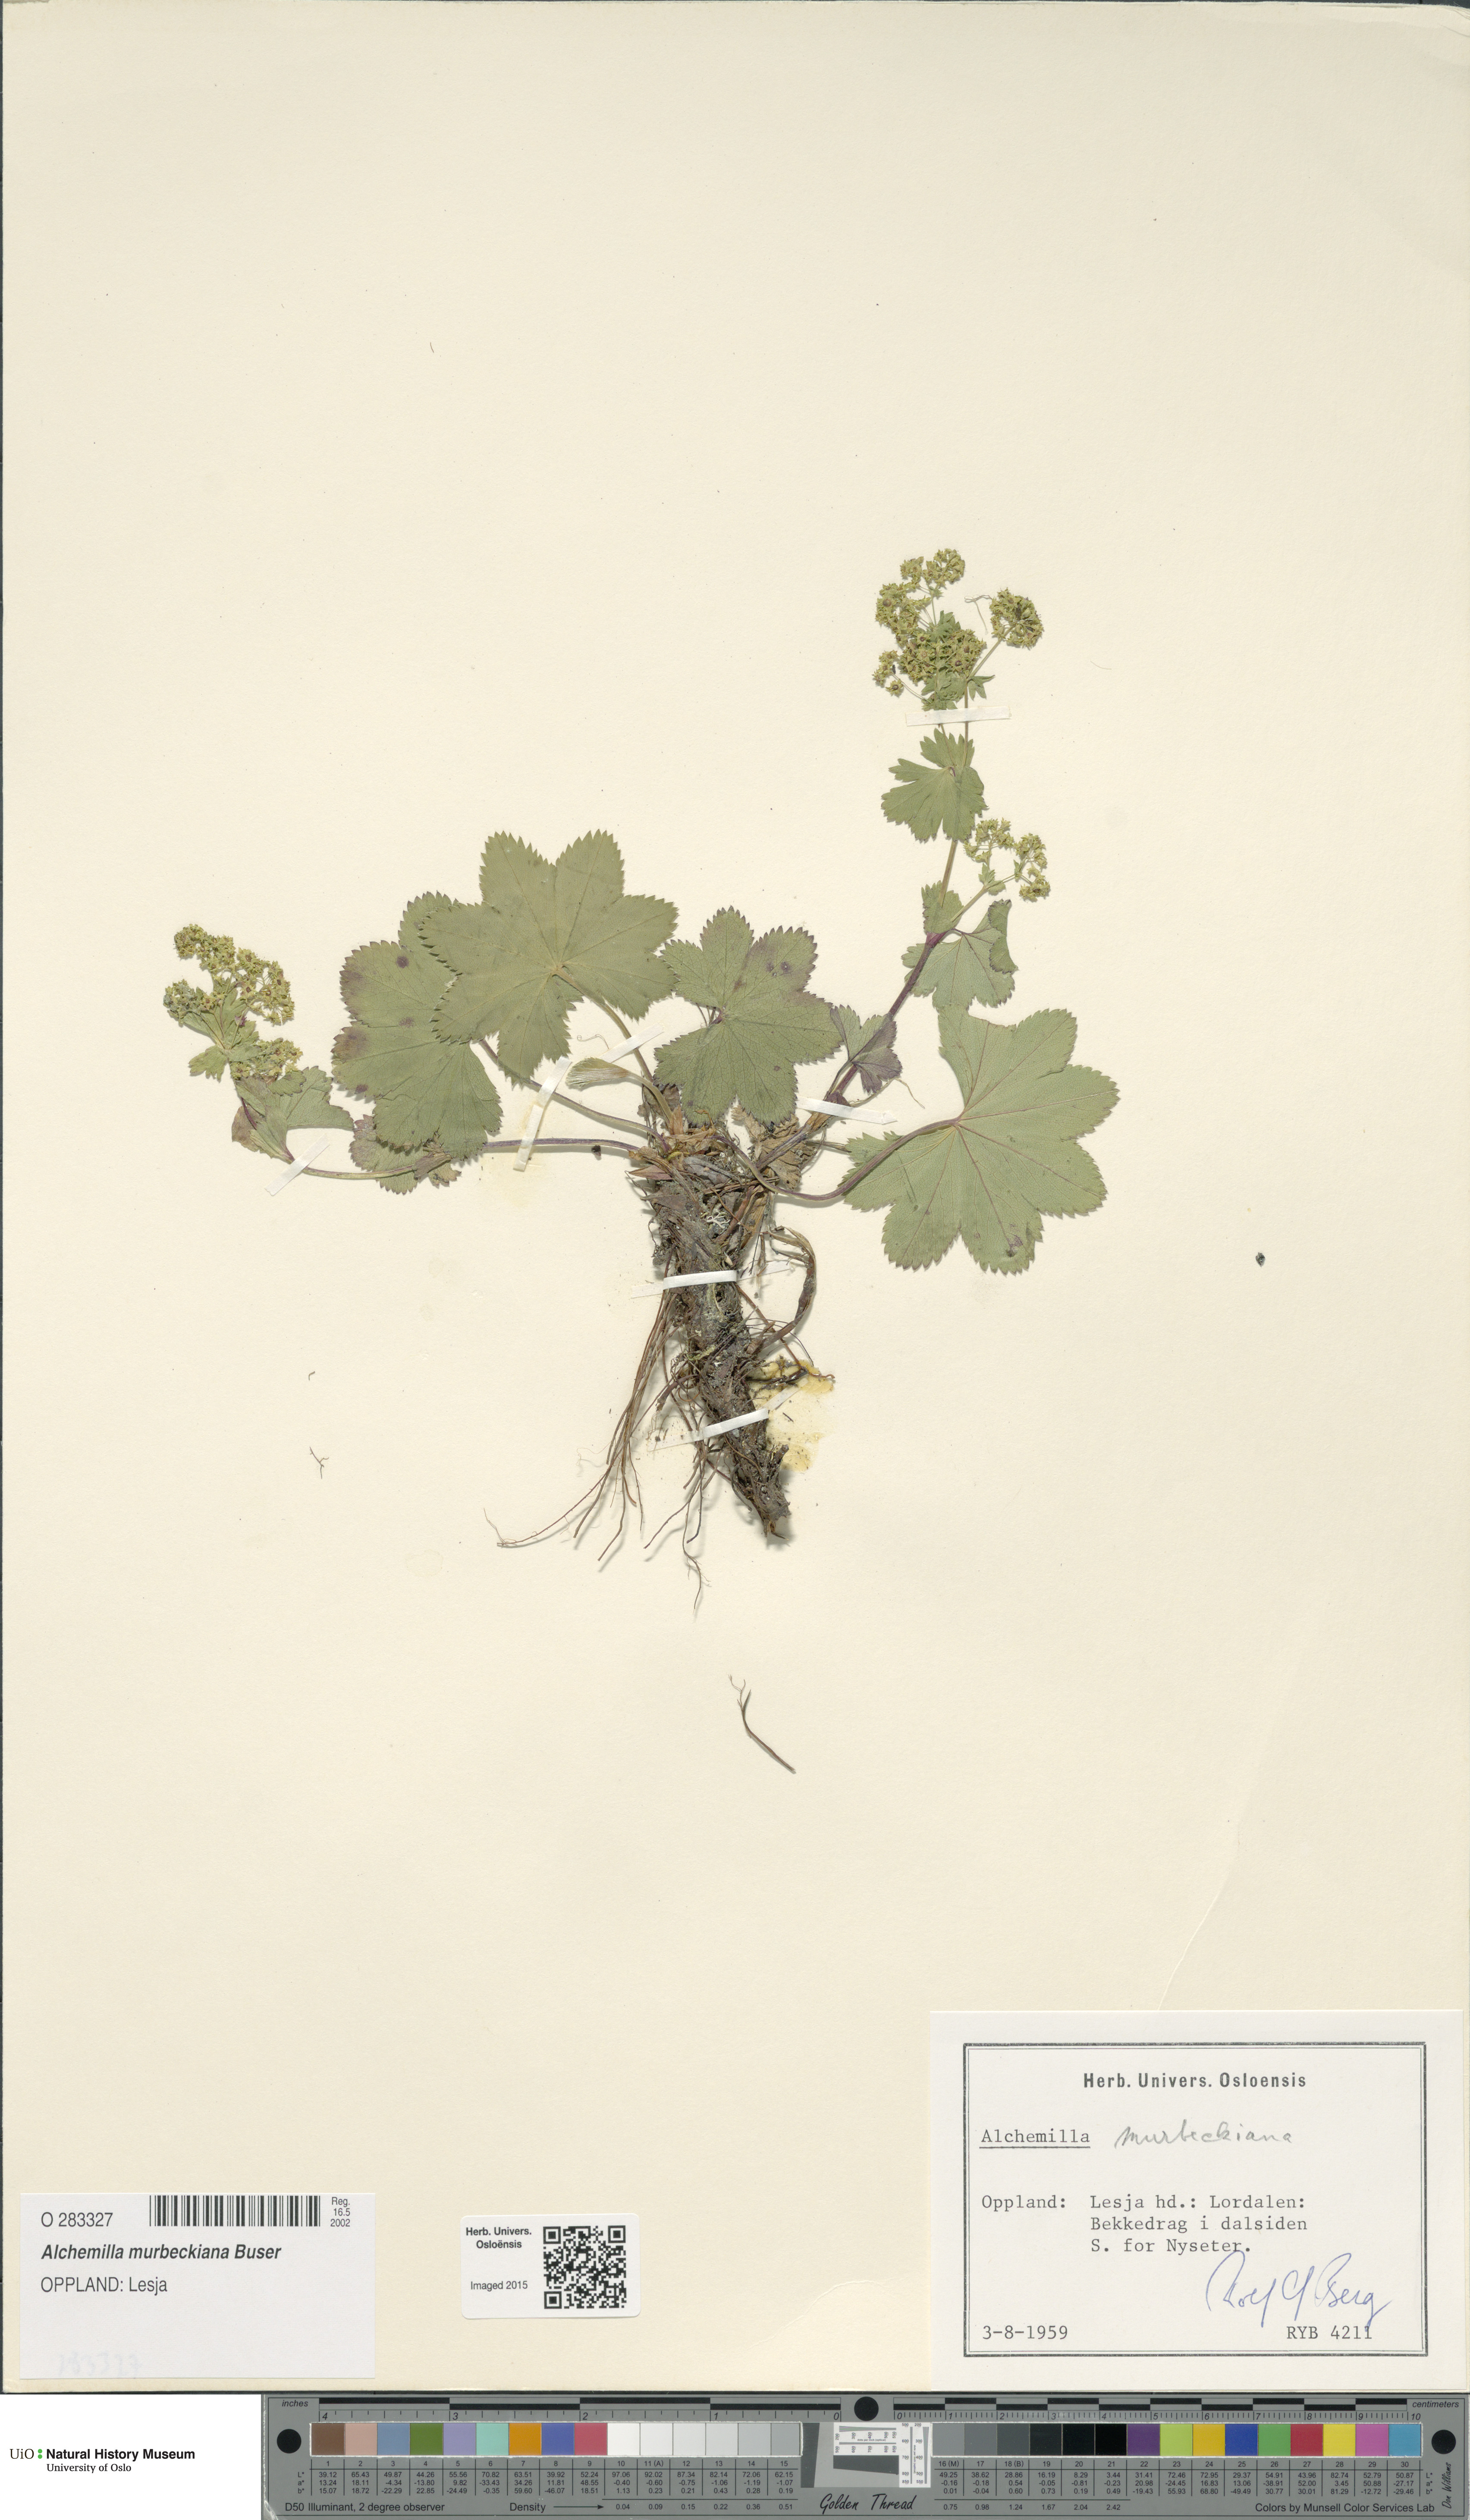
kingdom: Plantae
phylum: Tracheophyta
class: Magnoliopsida
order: Rosales
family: Rosaceae
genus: Alchemilla
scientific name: Alchemilla murbeckiana
